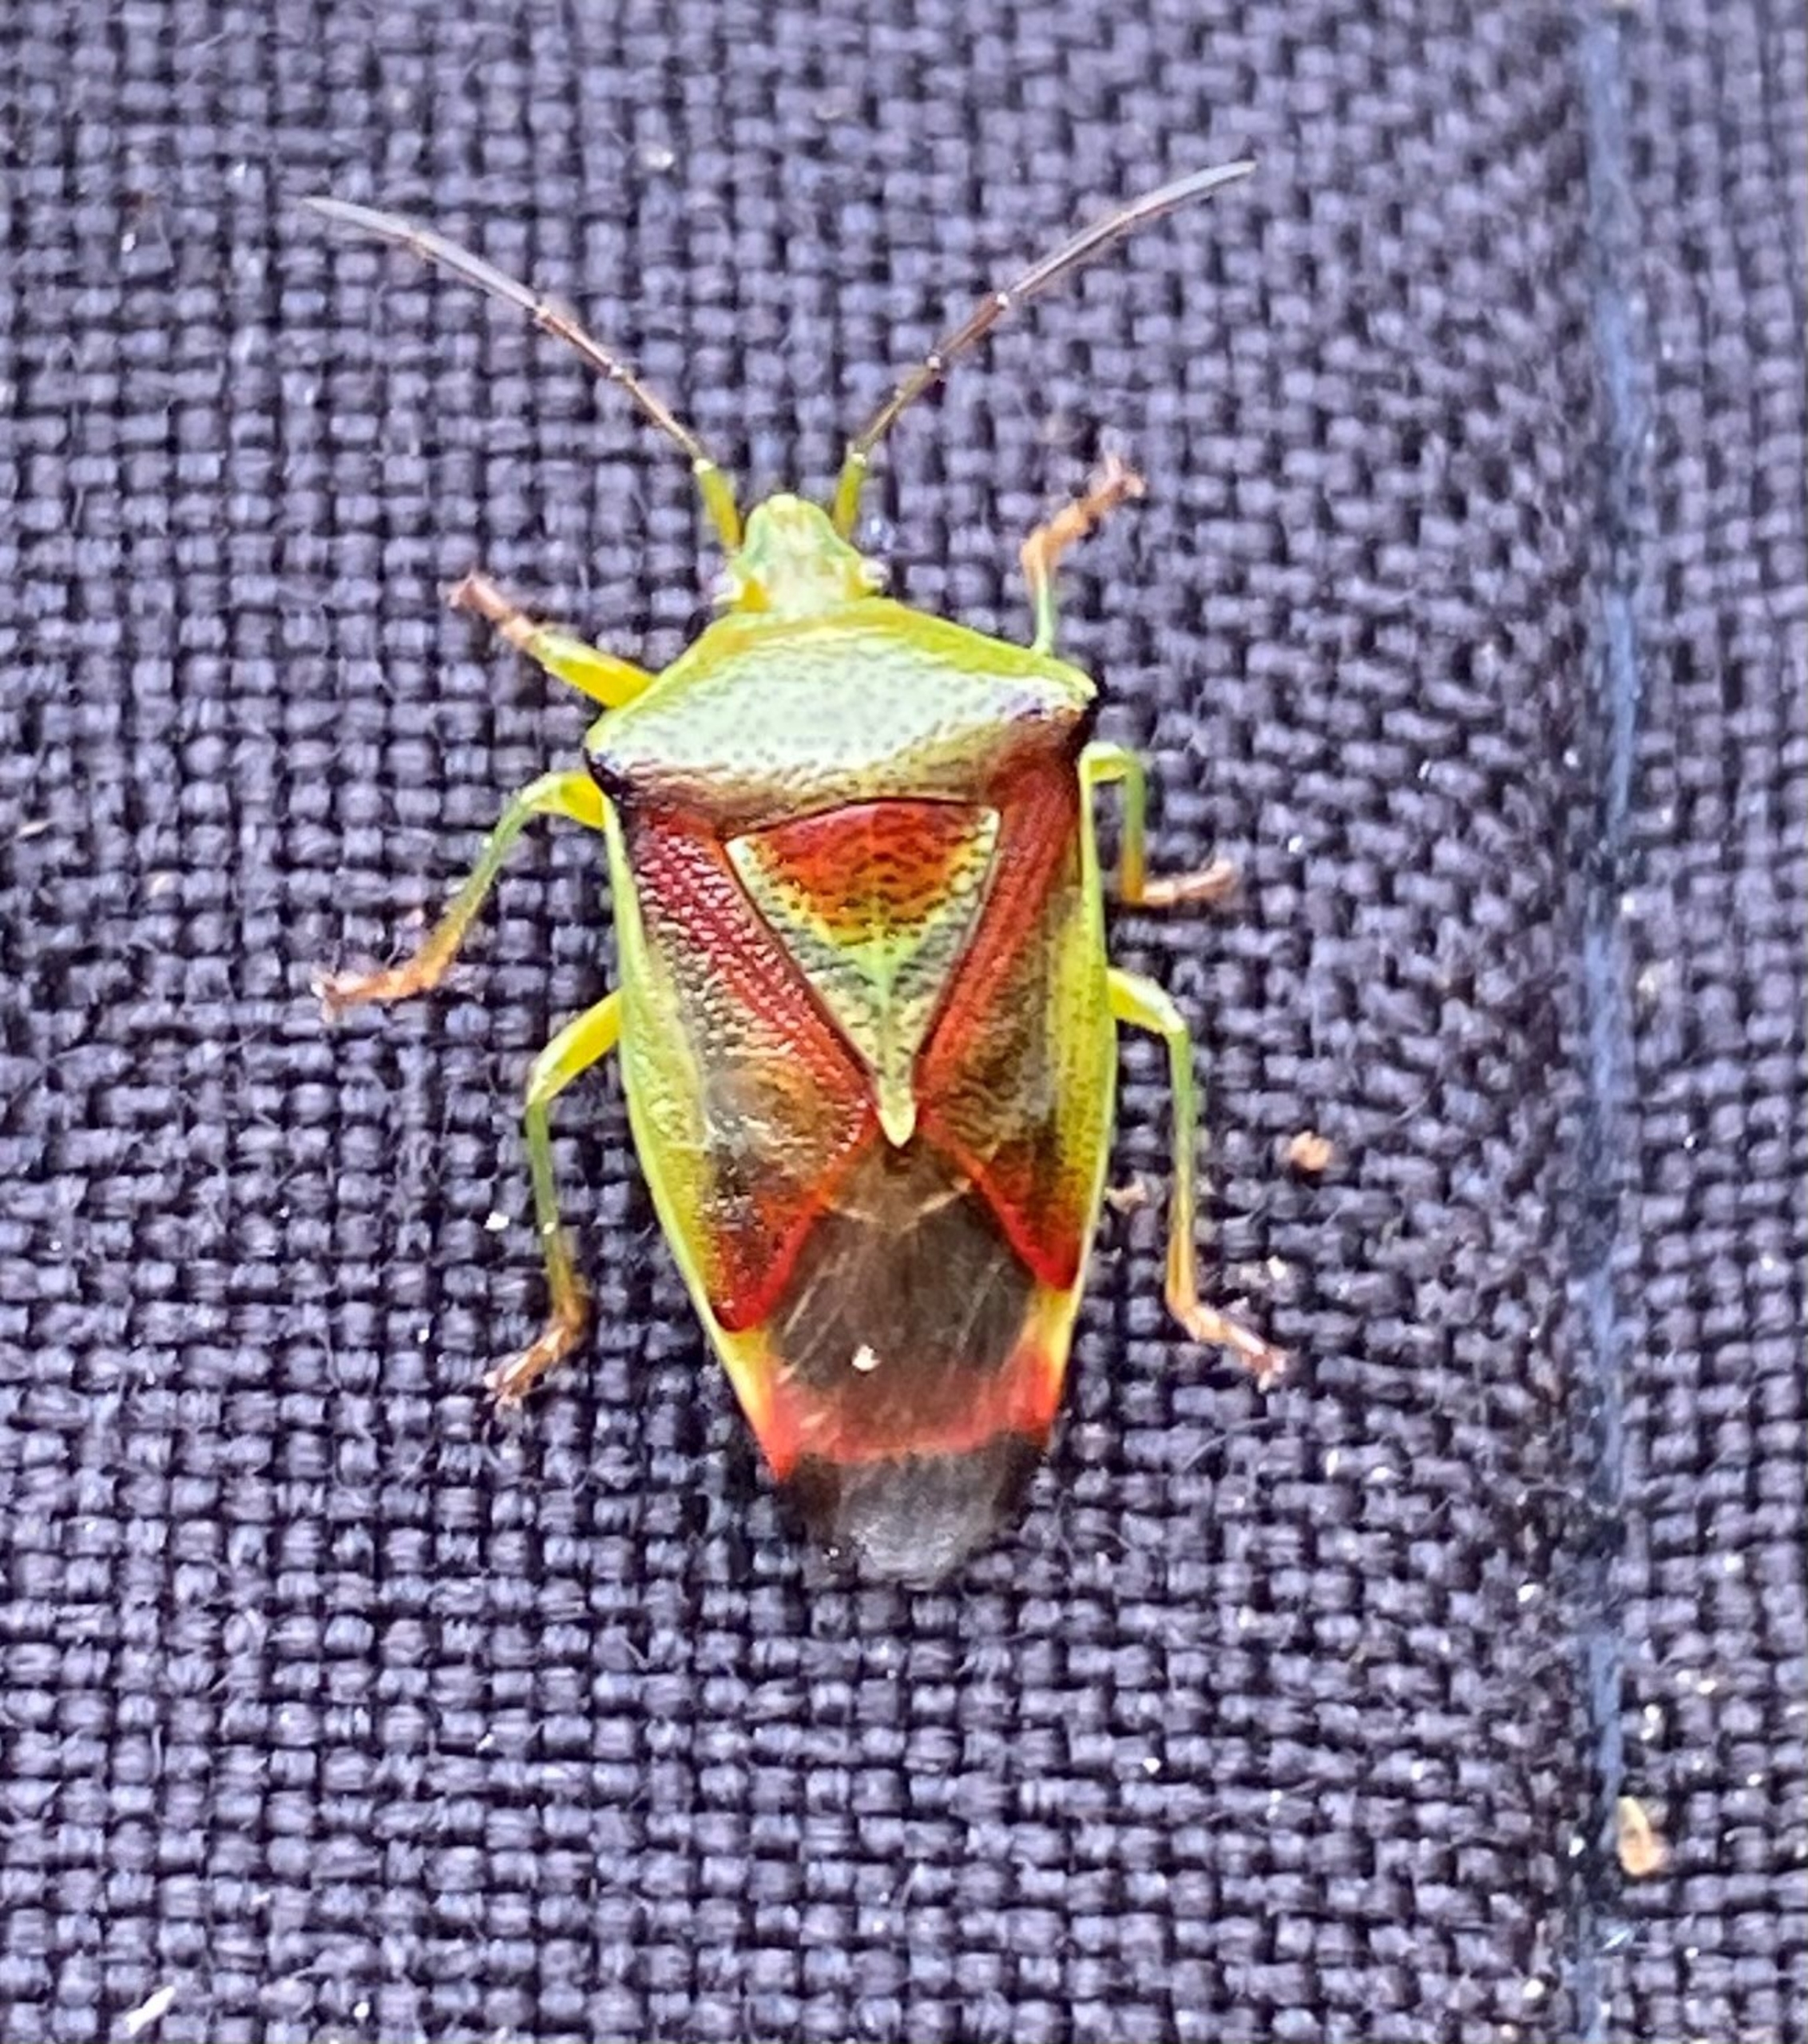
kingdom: Animalia
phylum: Arthropoda
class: Insecta
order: Hemiptera
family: Acanthosomatidae
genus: Elasmostethus
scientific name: Elasmostethus interstinctus
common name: Almindelig løvtæge
